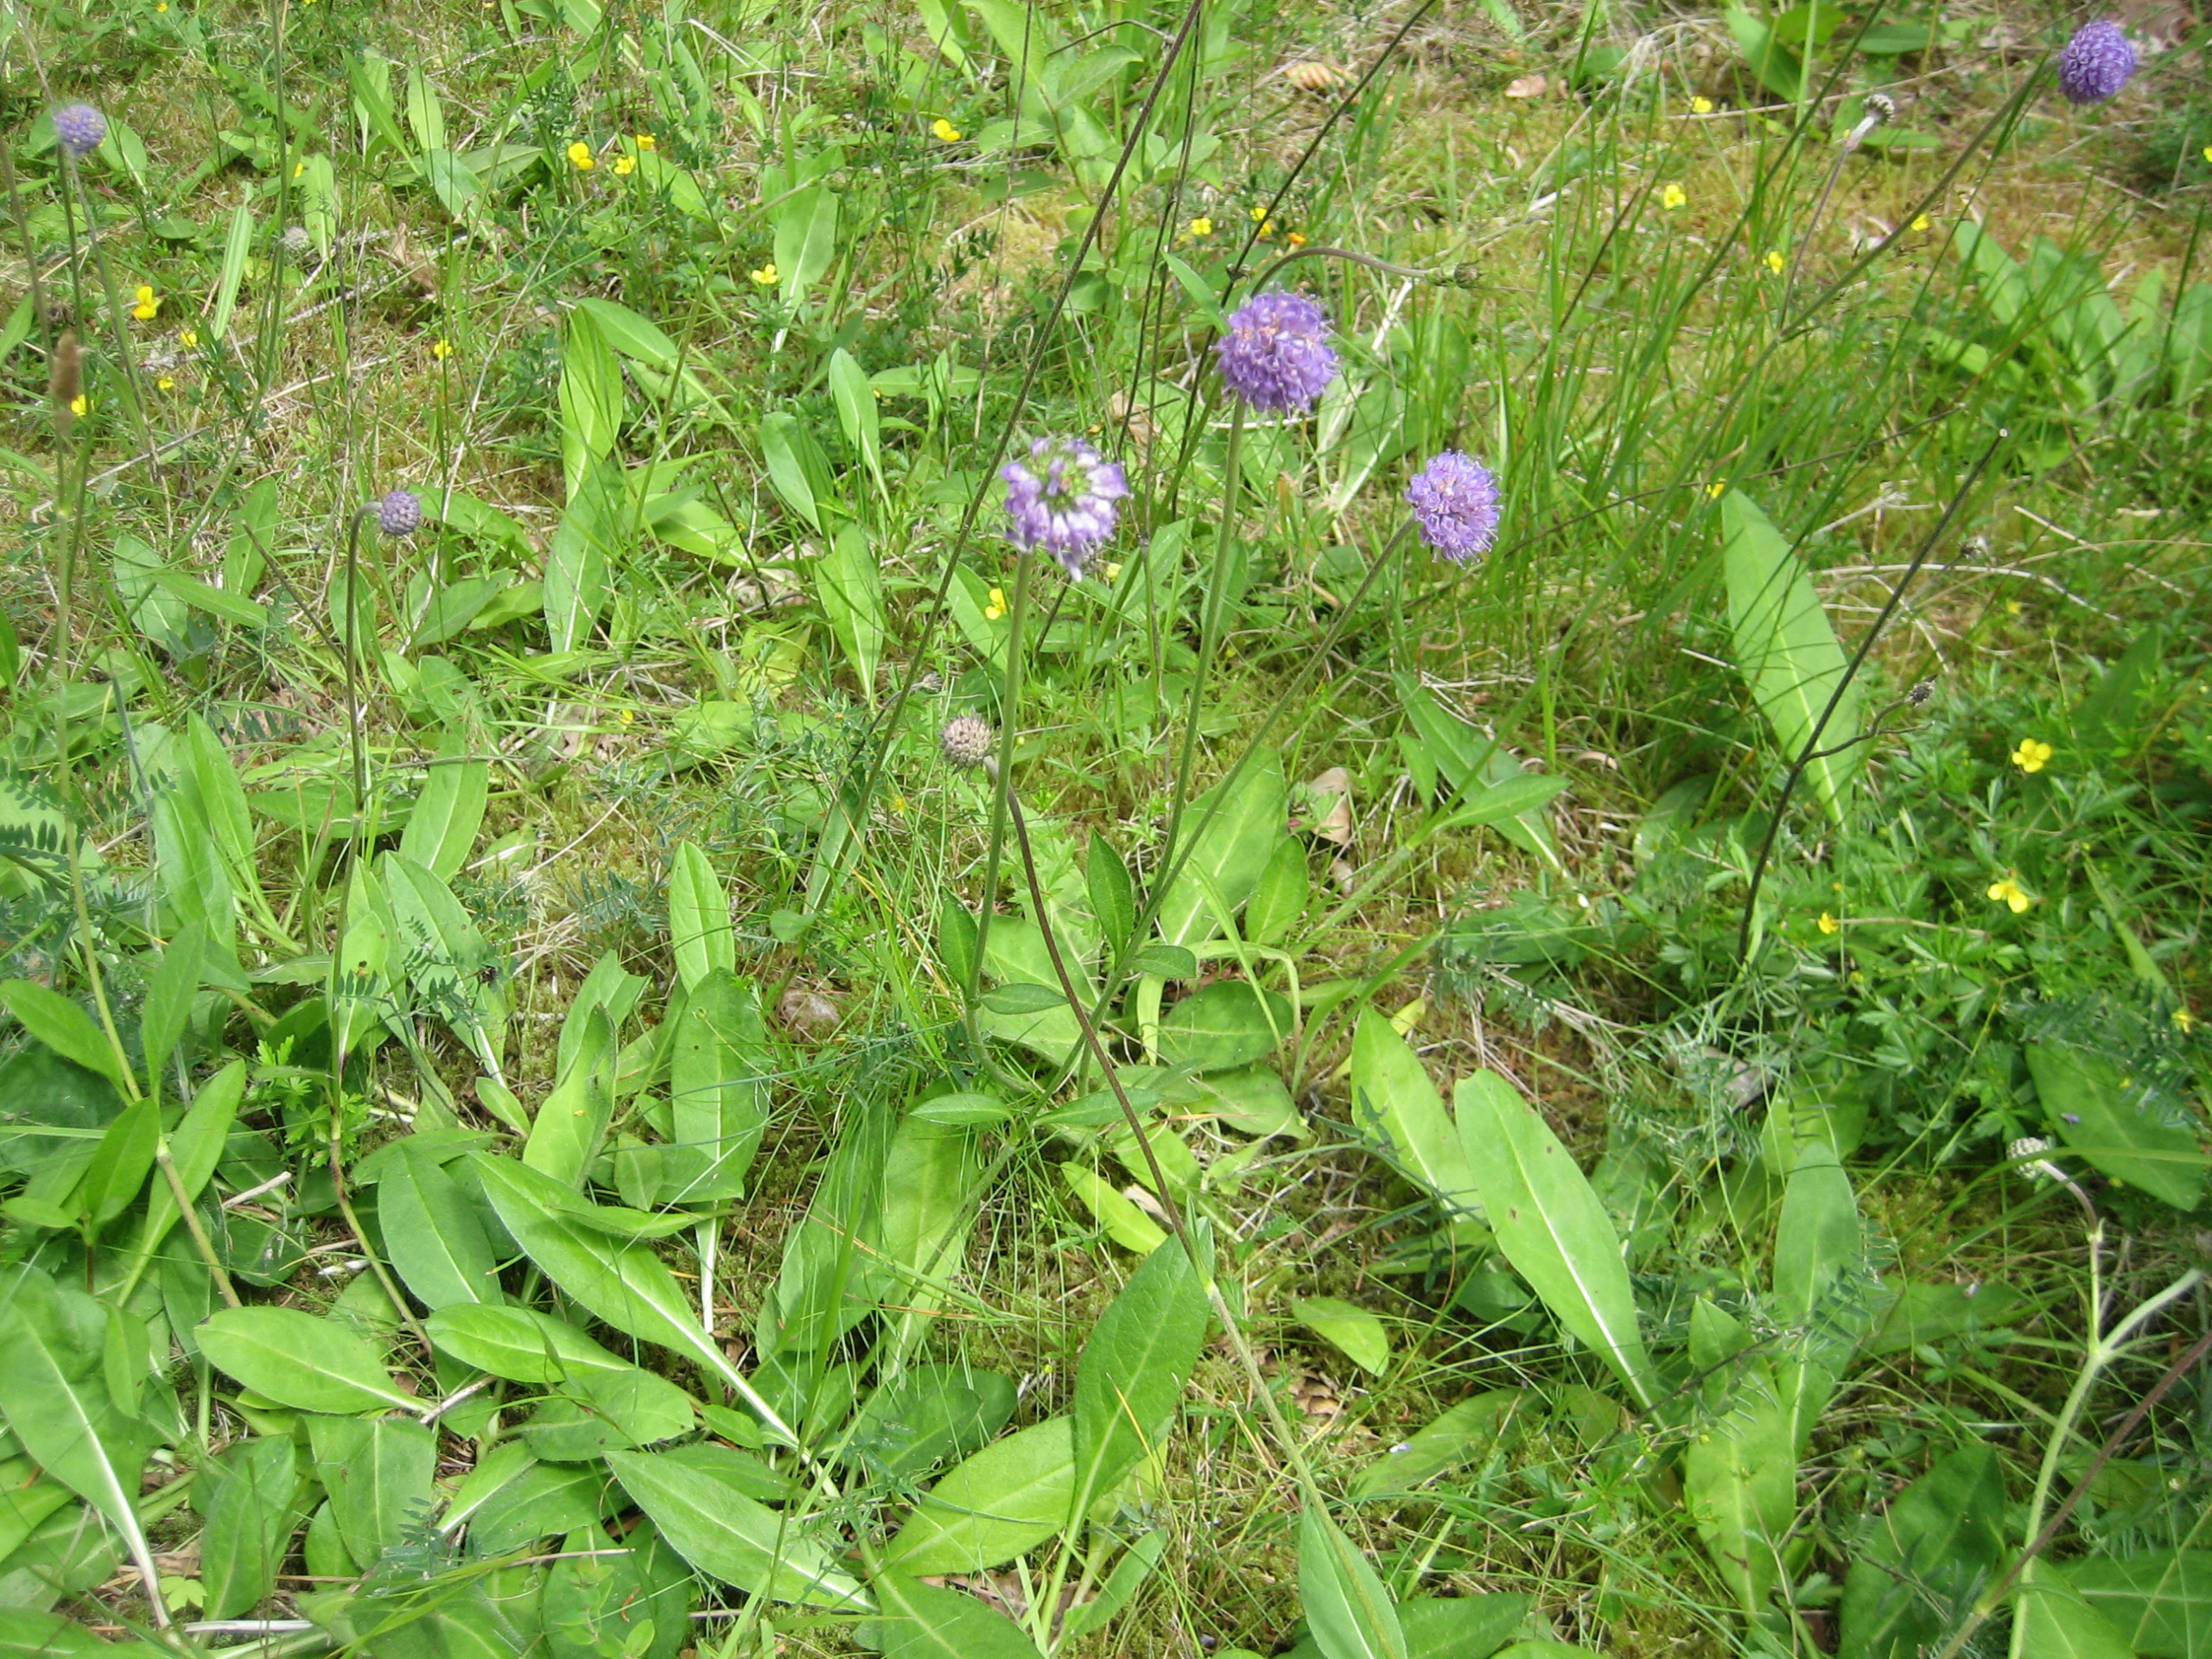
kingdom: Plantae
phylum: Tracheophyta
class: Magnoliopsida
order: Dipsacales
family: Caprifoliaceae
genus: Succisa
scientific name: Succisa pratensis
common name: Djævelsbid
